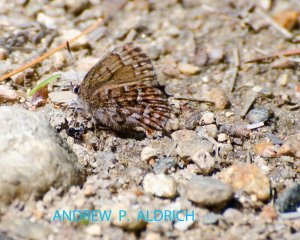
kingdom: Animalia
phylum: Arthropoda
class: Insecta
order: Lepidoptera
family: Lycaenidae
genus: Incisalia
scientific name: Incisalia niphon
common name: Eastern Pine Elfin
